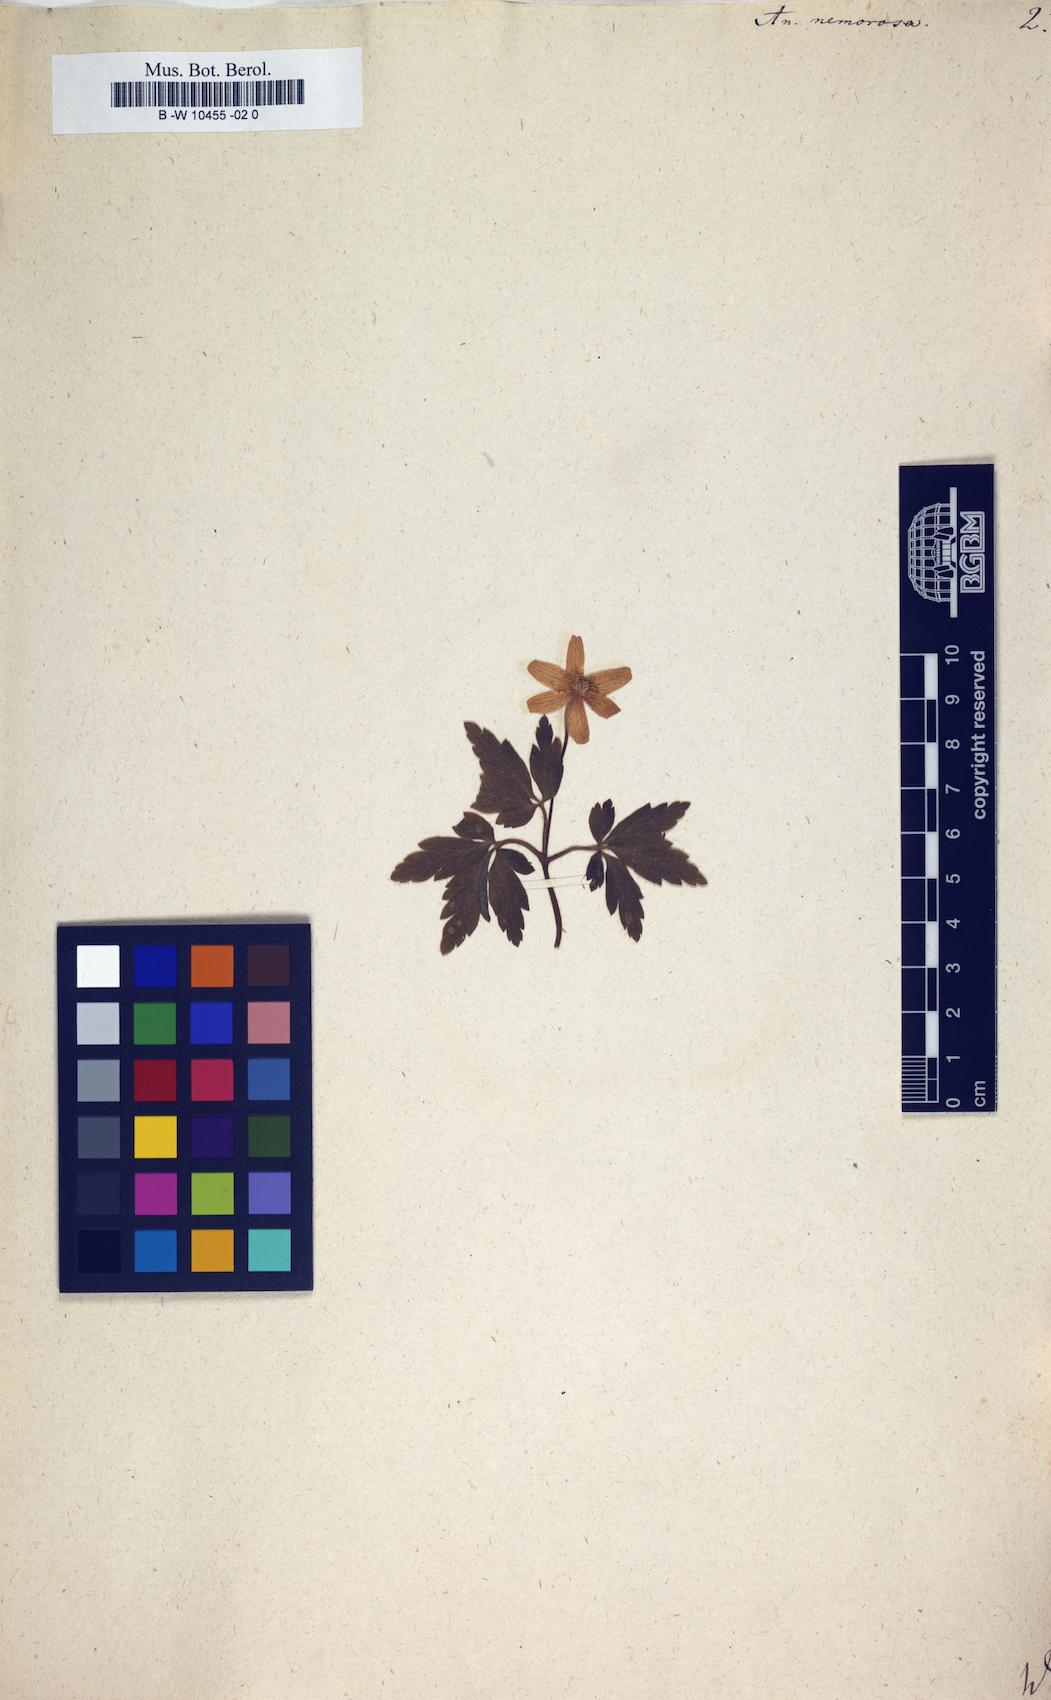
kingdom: Plantae
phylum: Tracheophyta
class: Magnoliopsida
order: Ranunculales
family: Ranunculaceae
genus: Anemone
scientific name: Anemone nemorosa
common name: Wood anemone
